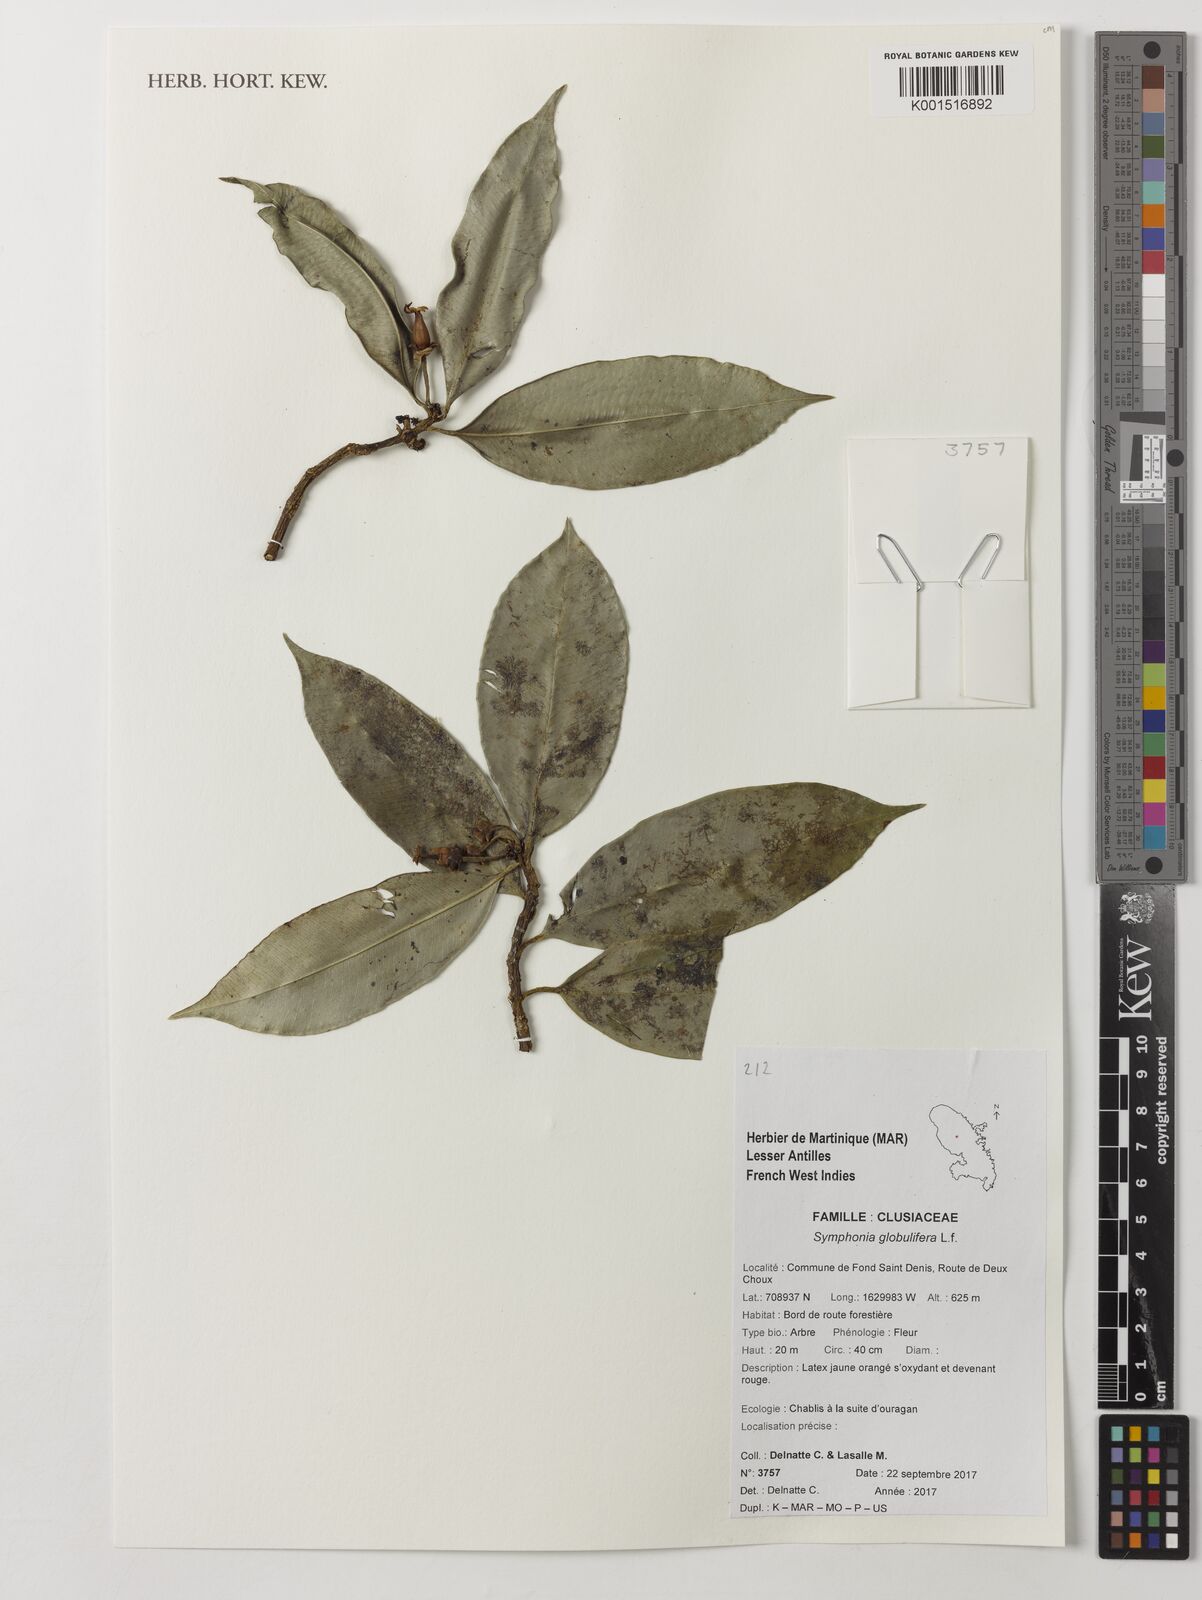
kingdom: Plantae
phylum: Tracheophyta
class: Magnoliopsida
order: Malpighiales
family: Clusiaceae
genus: Symphonia
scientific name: Symphonia globulifera
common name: Boarwood
